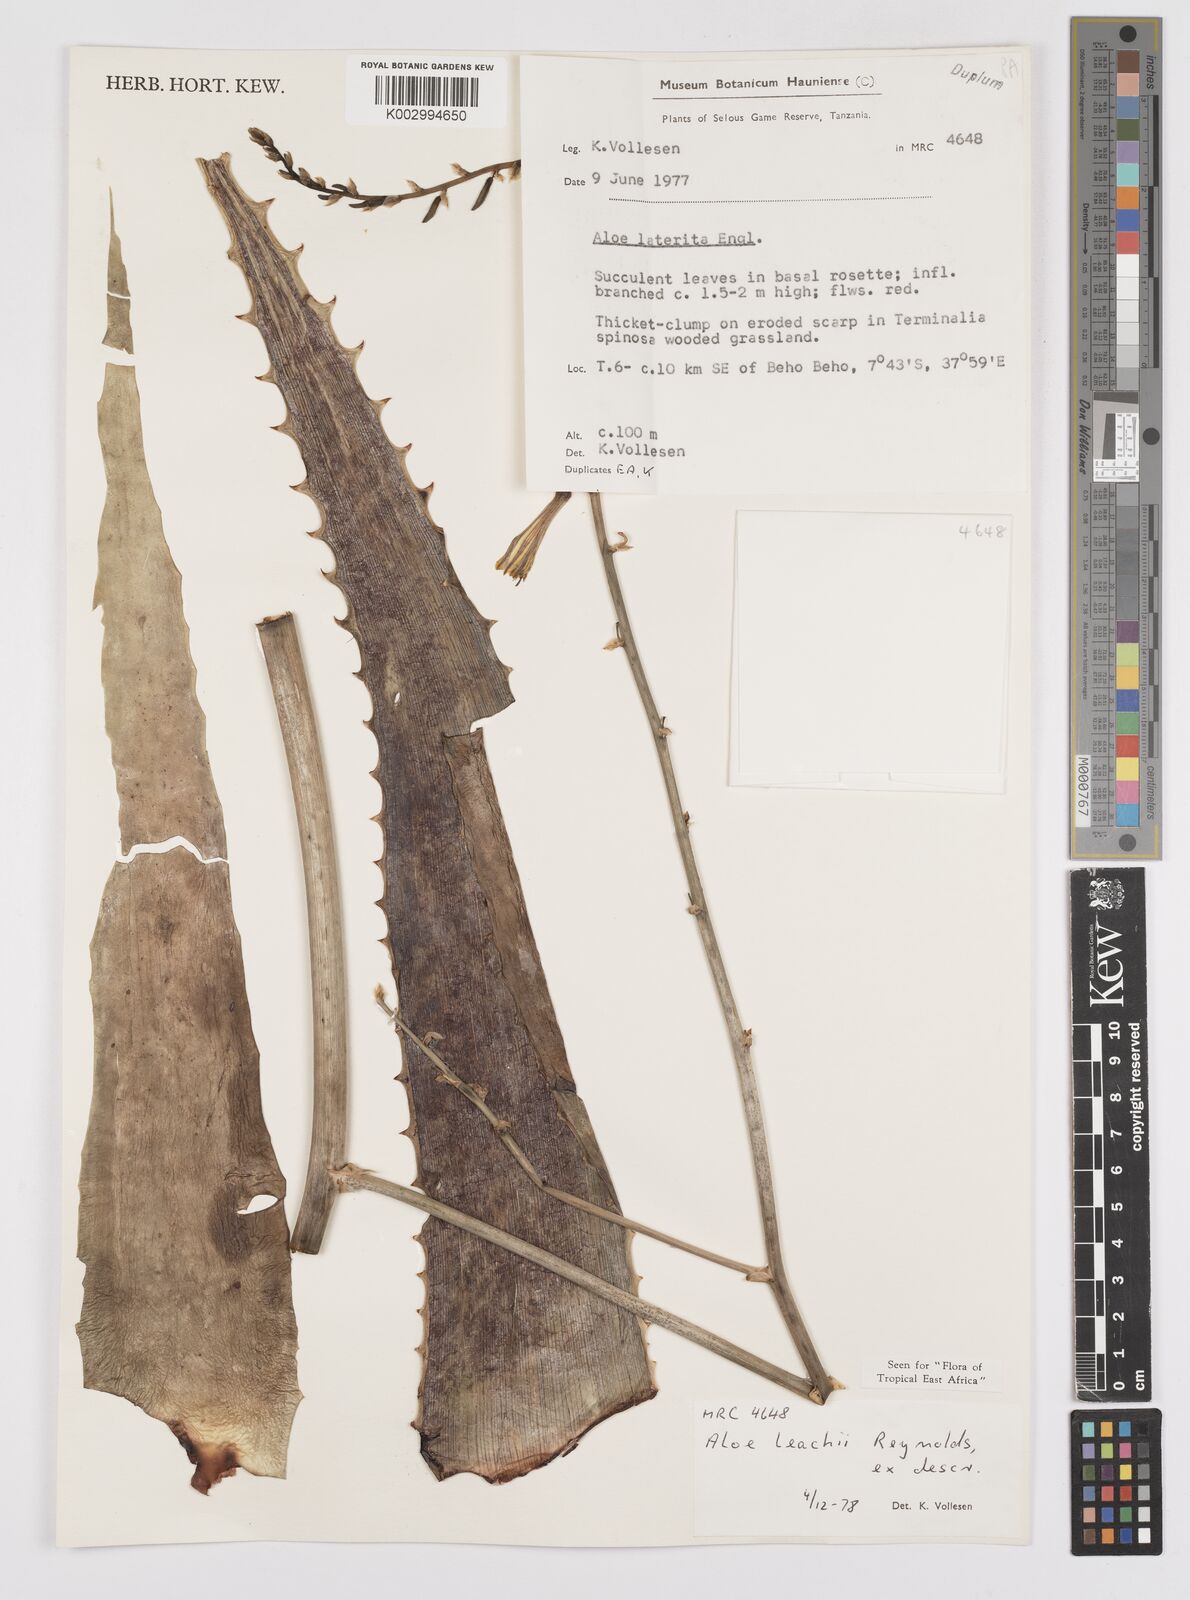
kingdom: Plantae
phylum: Tracheophyta
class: Liliopsida
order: Asparagales
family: Asphodelaceae
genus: Aloe
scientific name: Aloe leachii
